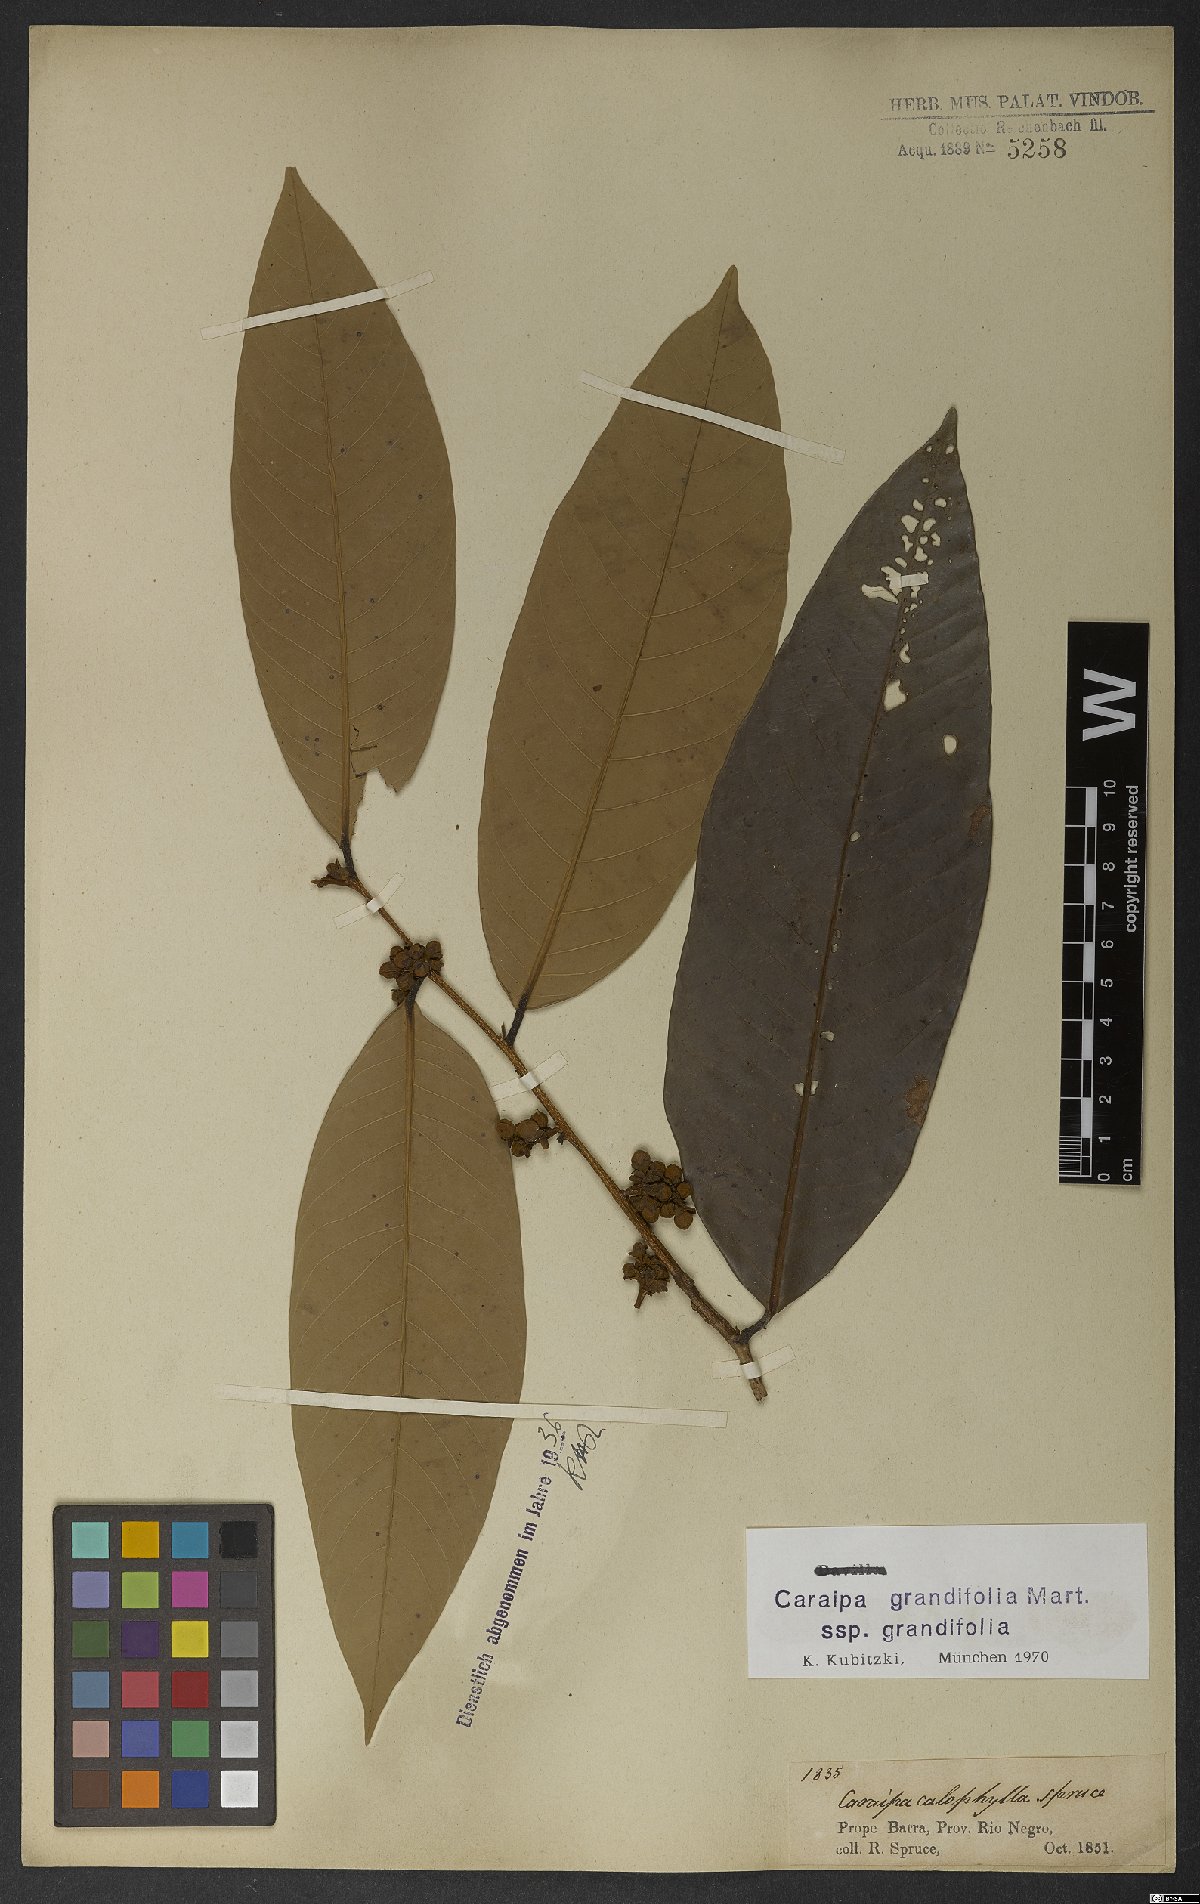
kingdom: Plantae
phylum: Tracheophyta
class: Magnoliopsida
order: Malpighiales
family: Calophyllaceae
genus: Caraipa
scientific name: Caraipa grandifolia
